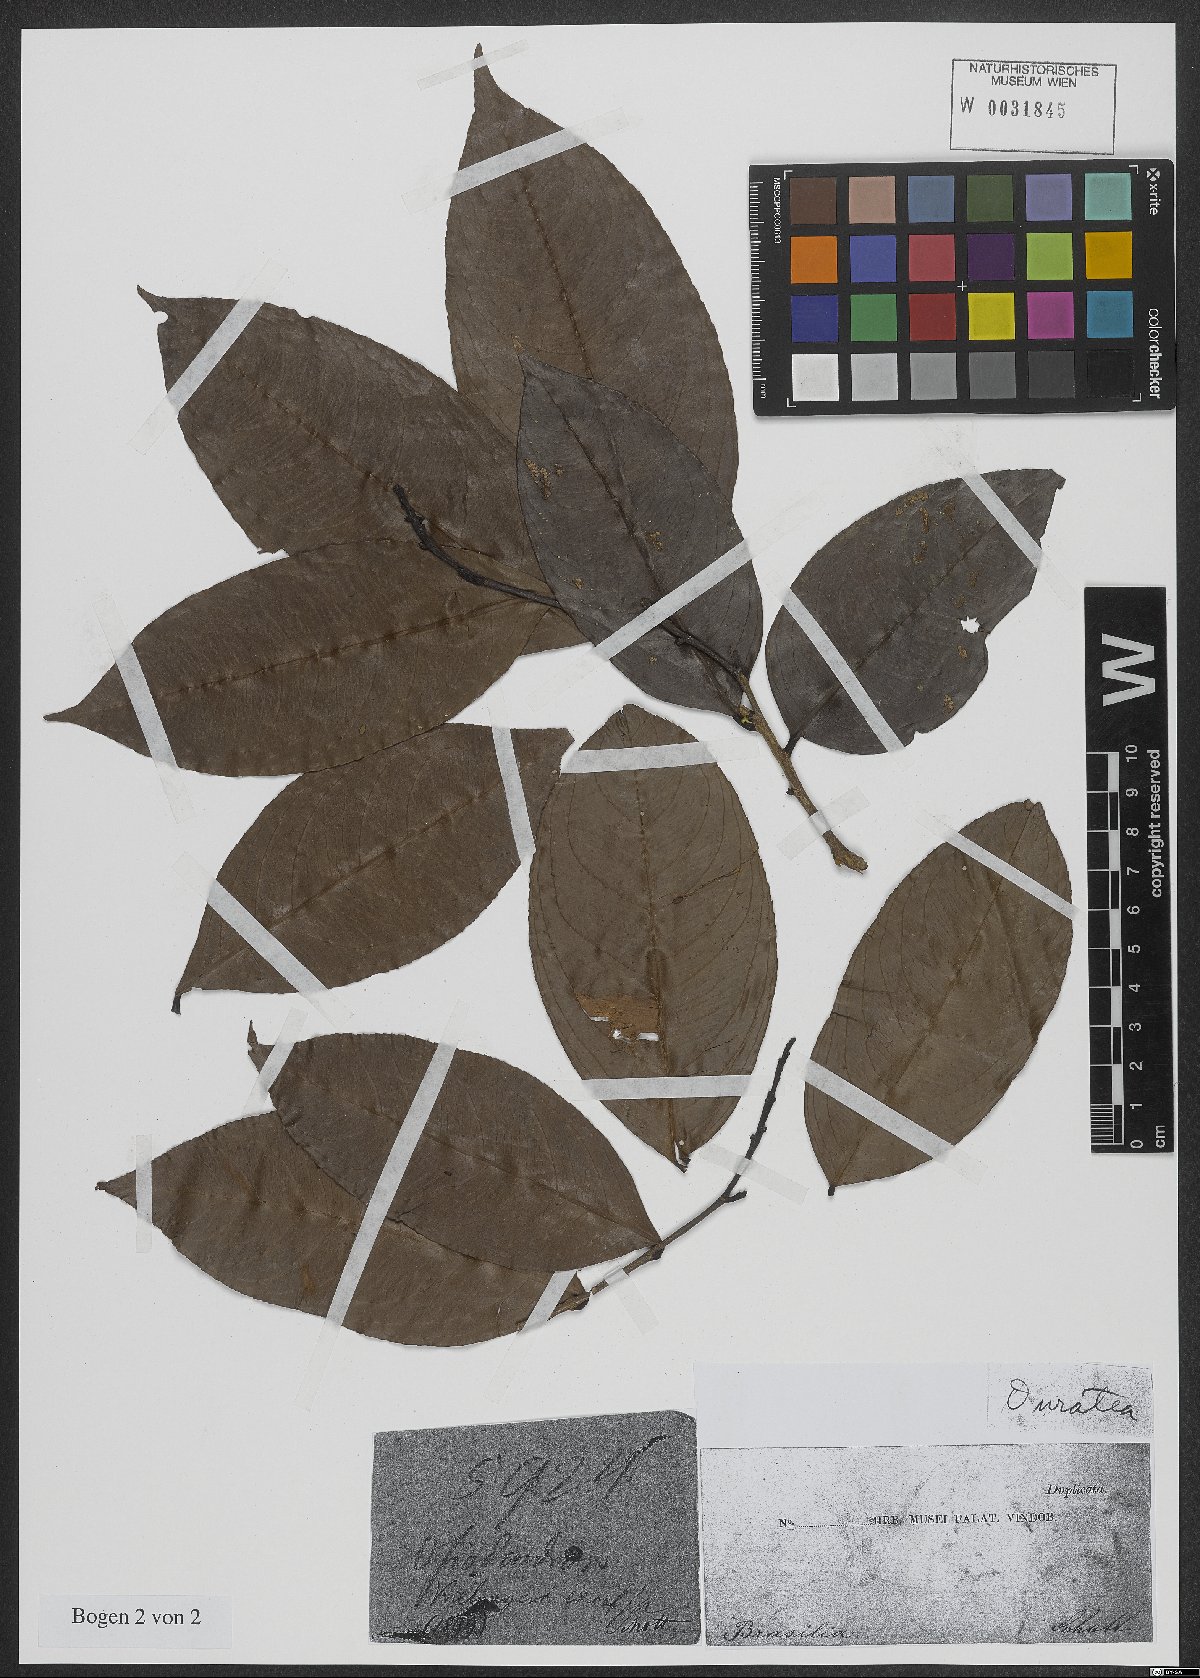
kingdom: Plantae
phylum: Tracheophyta
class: Magnoliopsida
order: Malpighiales
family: Ochnaceae
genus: Ouratea
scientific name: Ouratea
